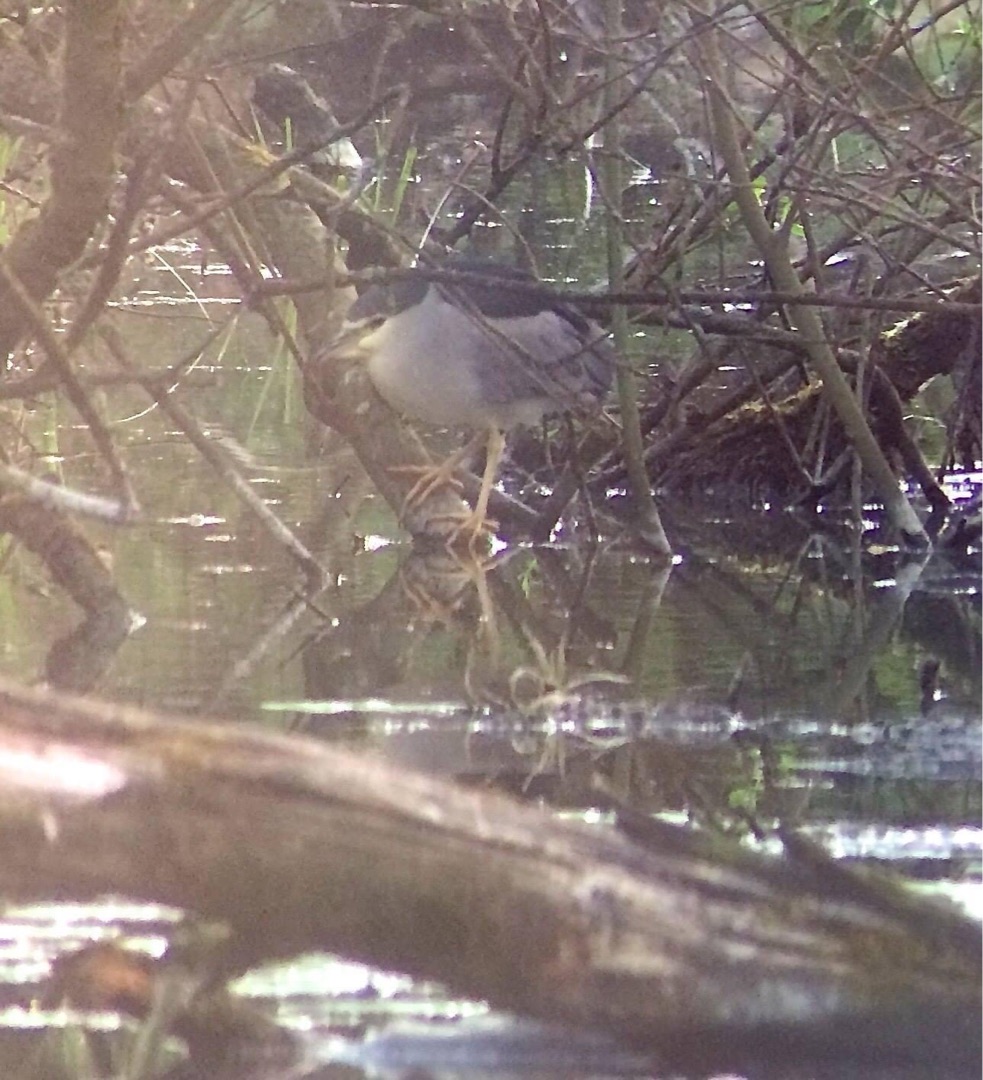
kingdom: Animalia
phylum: Chordata
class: Aves
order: Pelecaniformes
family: Ardeidae
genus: Nycticorax
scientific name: Nycticorax nycticorax
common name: Nathejre
